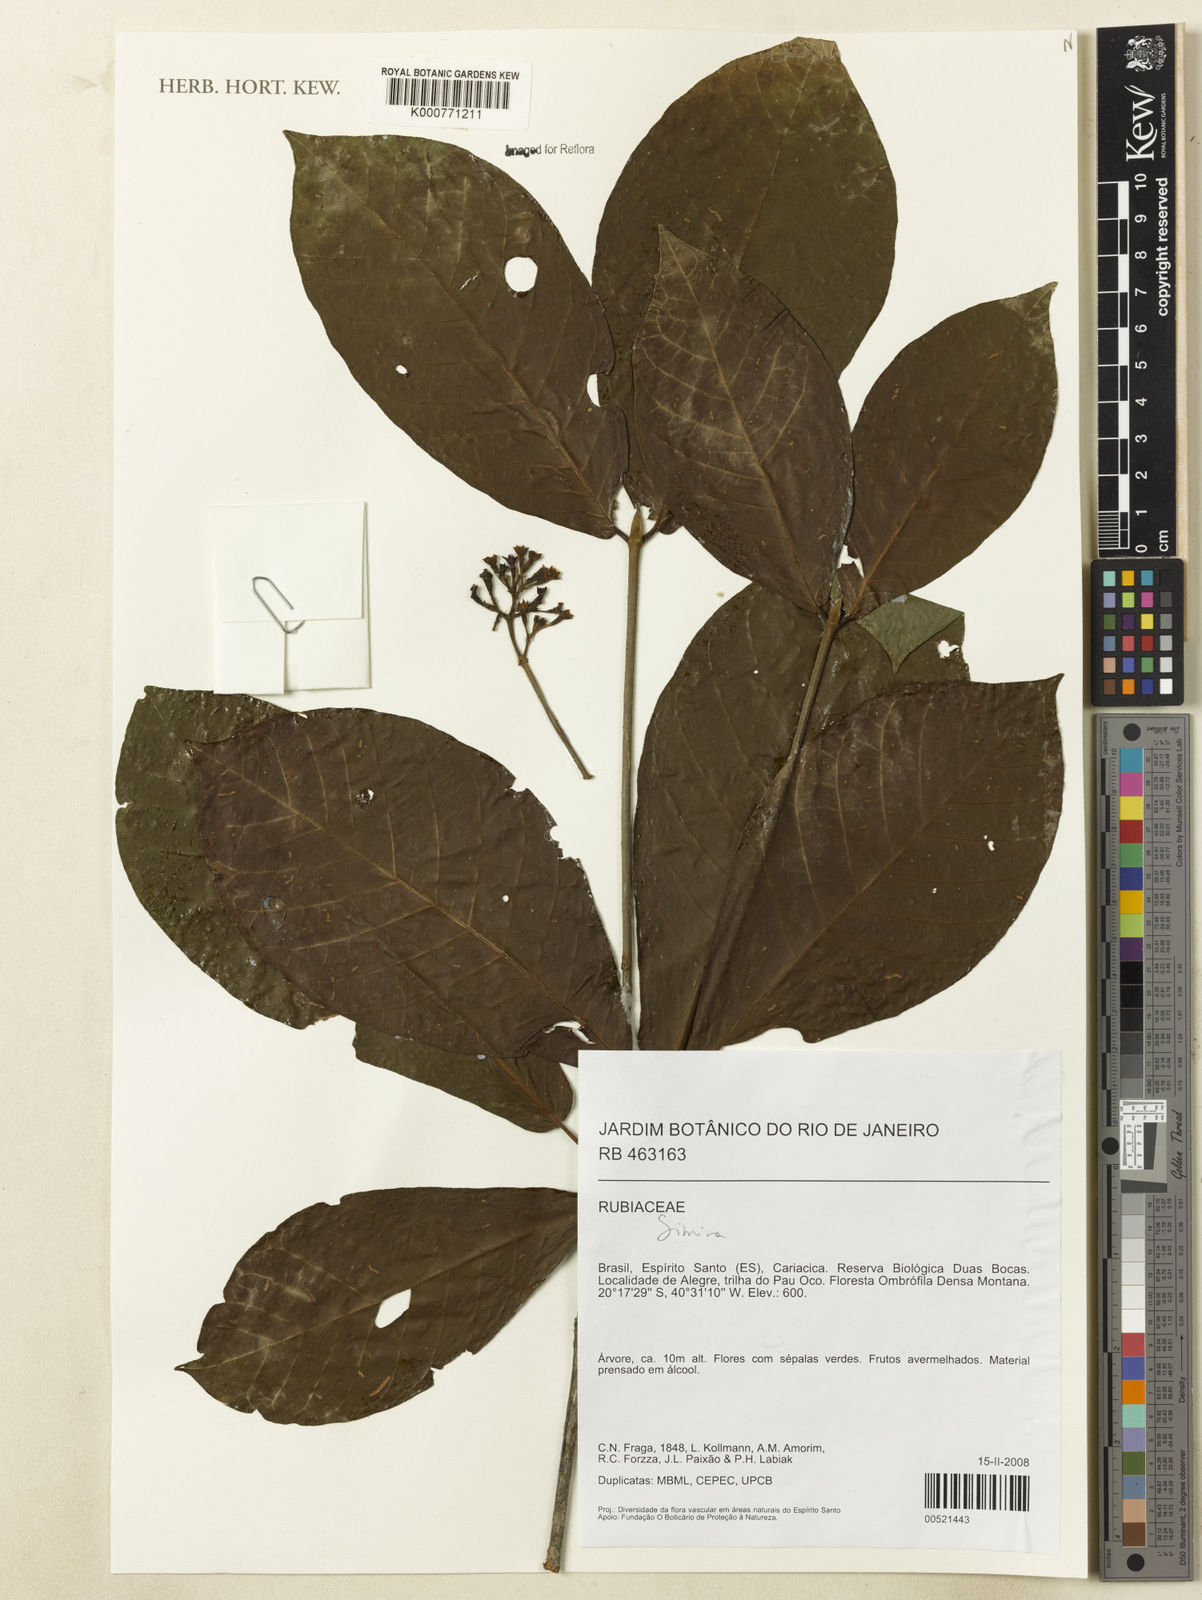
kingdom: Plantae
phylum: Tracheophyta
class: Magnoliopsida
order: Gentianales
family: Rubiaceae
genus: Simira
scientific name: Simira
